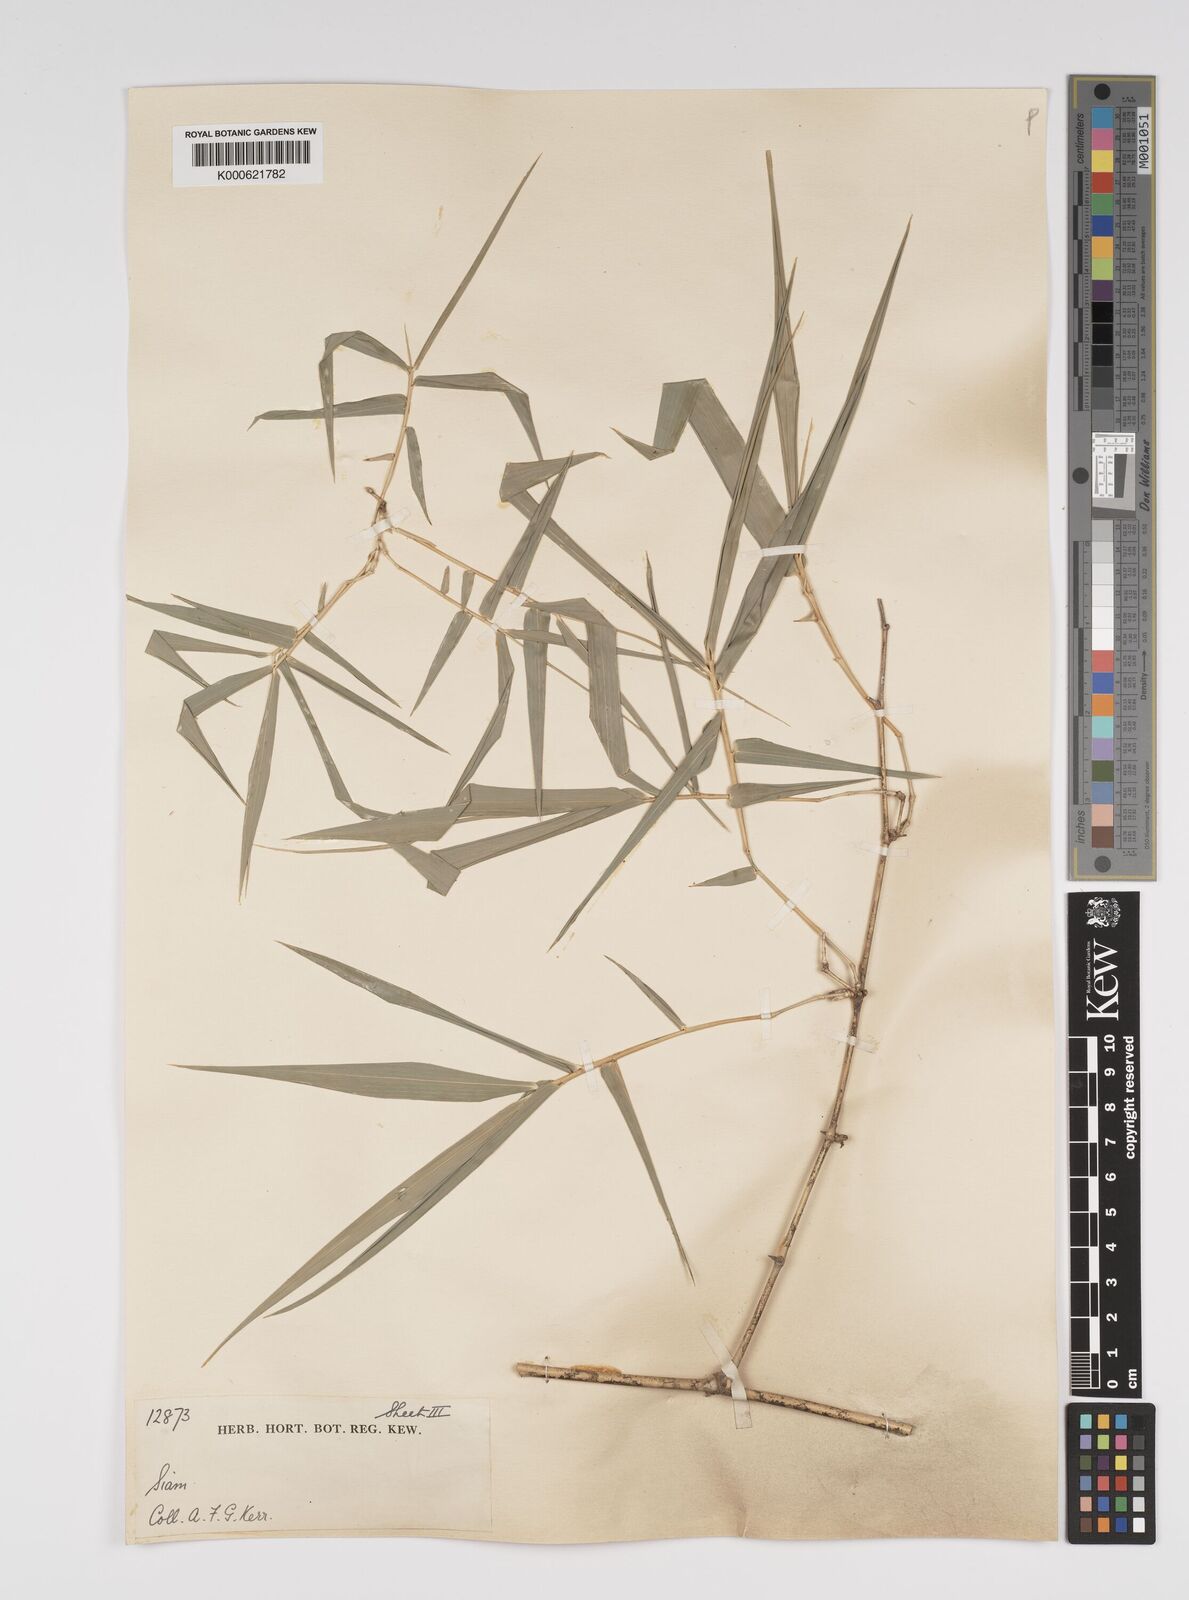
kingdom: Plantae
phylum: Tracheophyta
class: Liliopsida
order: Poales
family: Poaceae
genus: Bambusa
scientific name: Bambusa bambos
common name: Indian thorny bamboo
